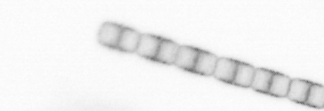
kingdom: Chromista
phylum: Ochrophyta
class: Bacillariophyceae
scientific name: Bacillariophyceae
